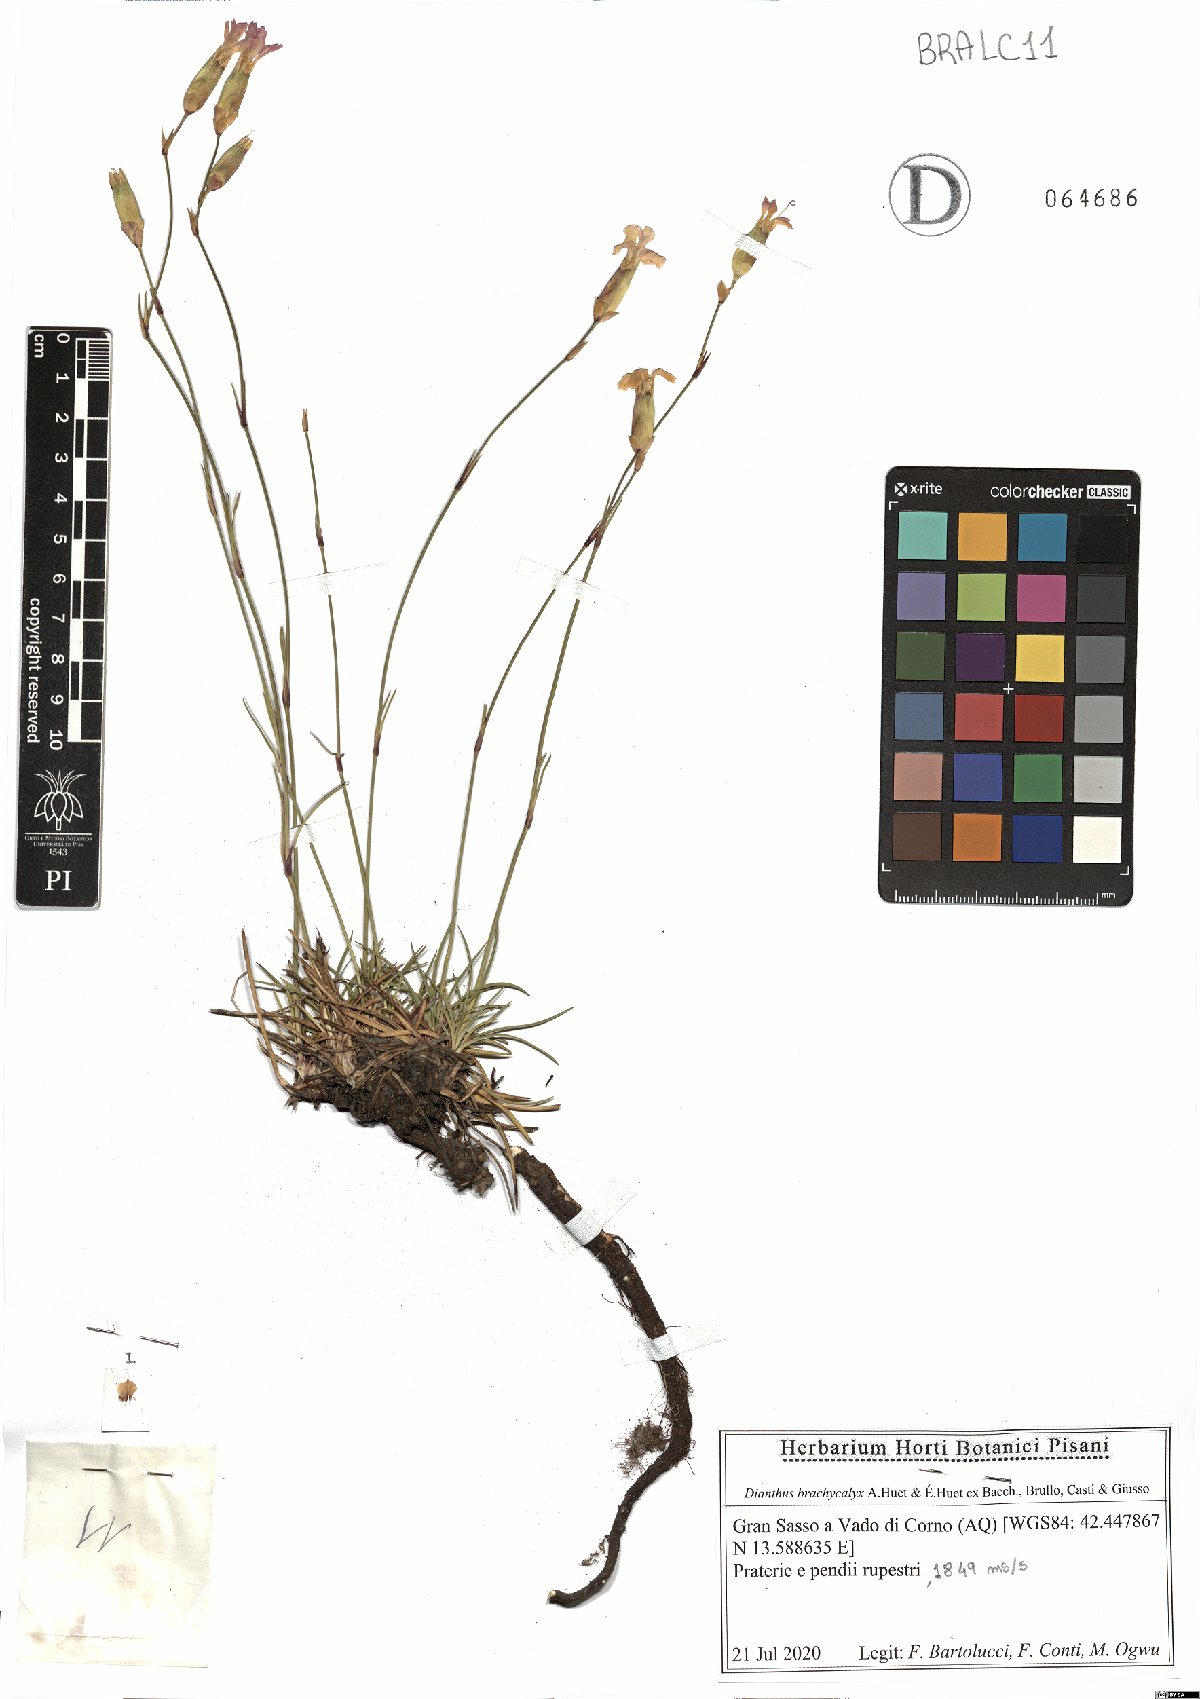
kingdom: Plantae
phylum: Tracheophyta
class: Magnoliopsida
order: Caryophyllales
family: Caryophyllaceae
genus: Dianthus
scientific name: Dianthus brachycalyx
